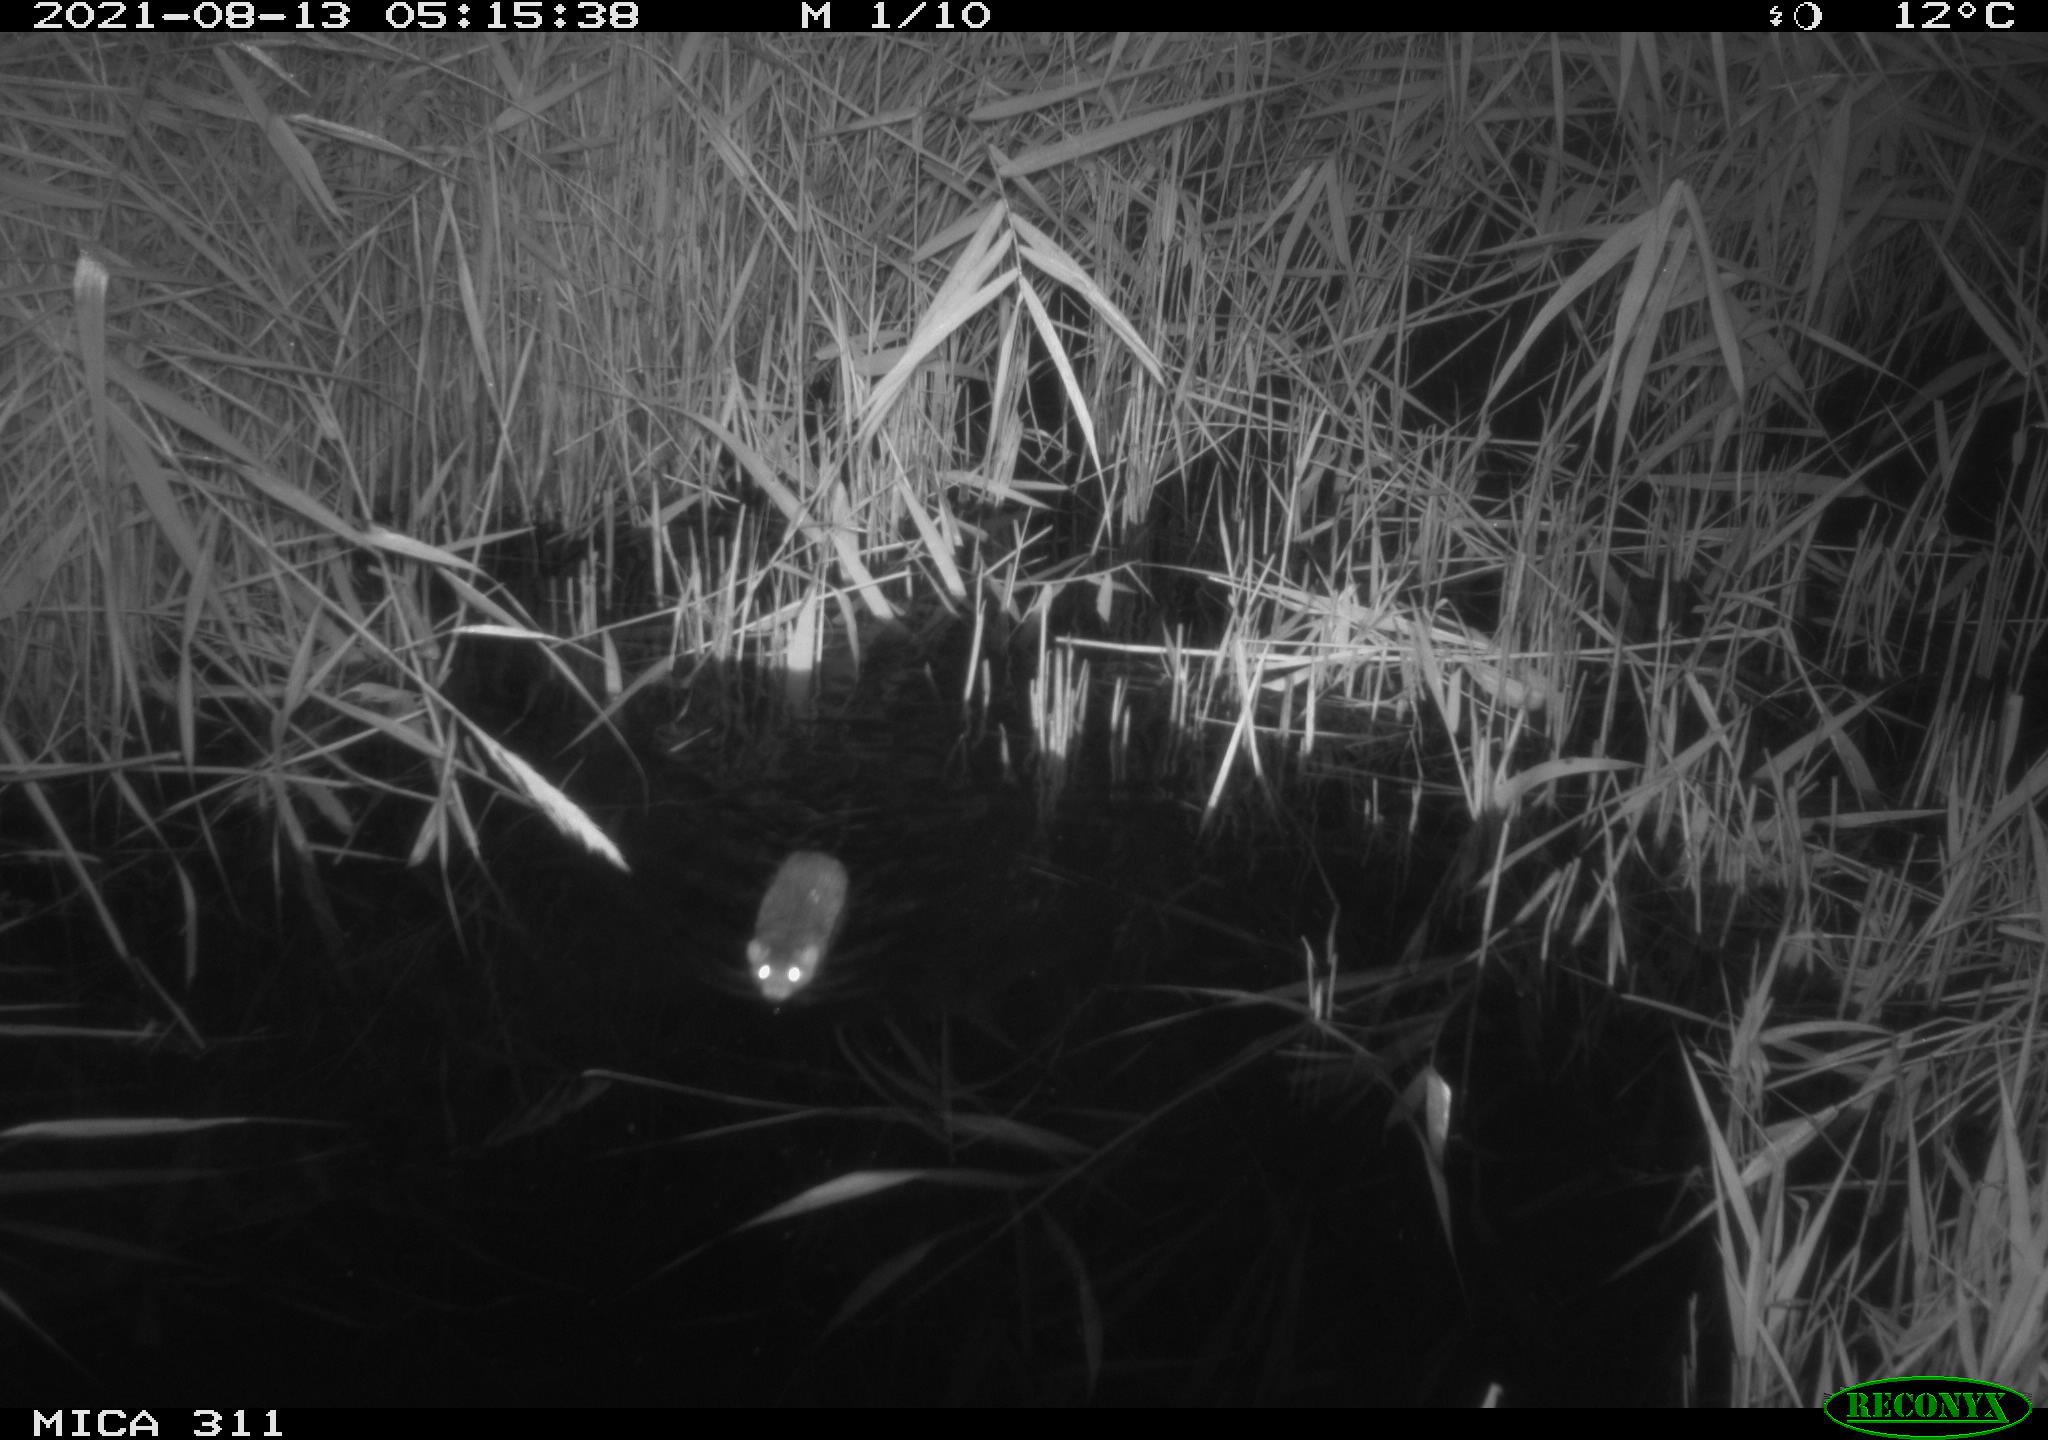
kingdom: Animalia
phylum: Chordata
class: Mammalia
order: Rodentia
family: Muridae
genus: Rattus
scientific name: Rattus norvegicus
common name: Brown rat
